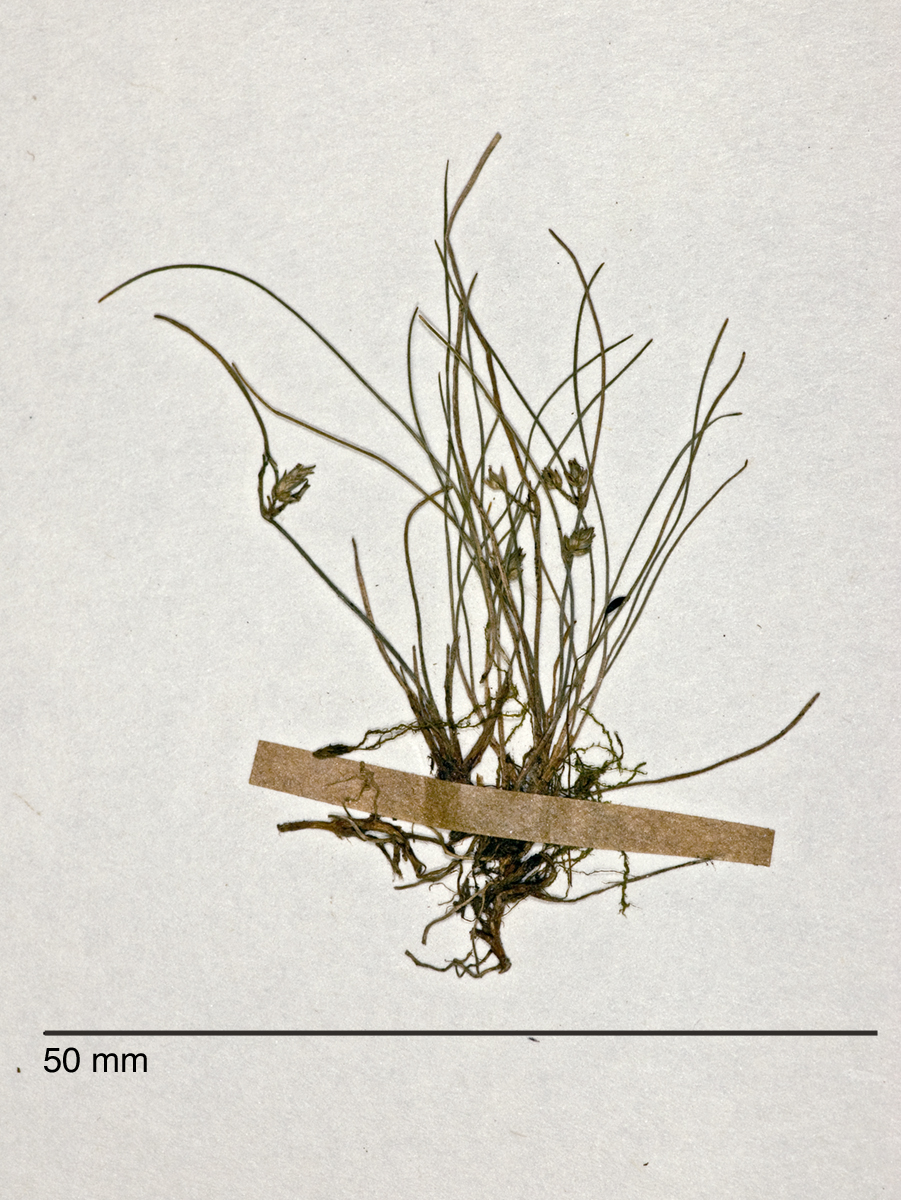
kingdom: Plantae
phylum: Tracheophyta
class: Liliopsida
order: Poales
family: Cyperaceae
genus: Isolepis
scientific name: Isolepis subtilissima
